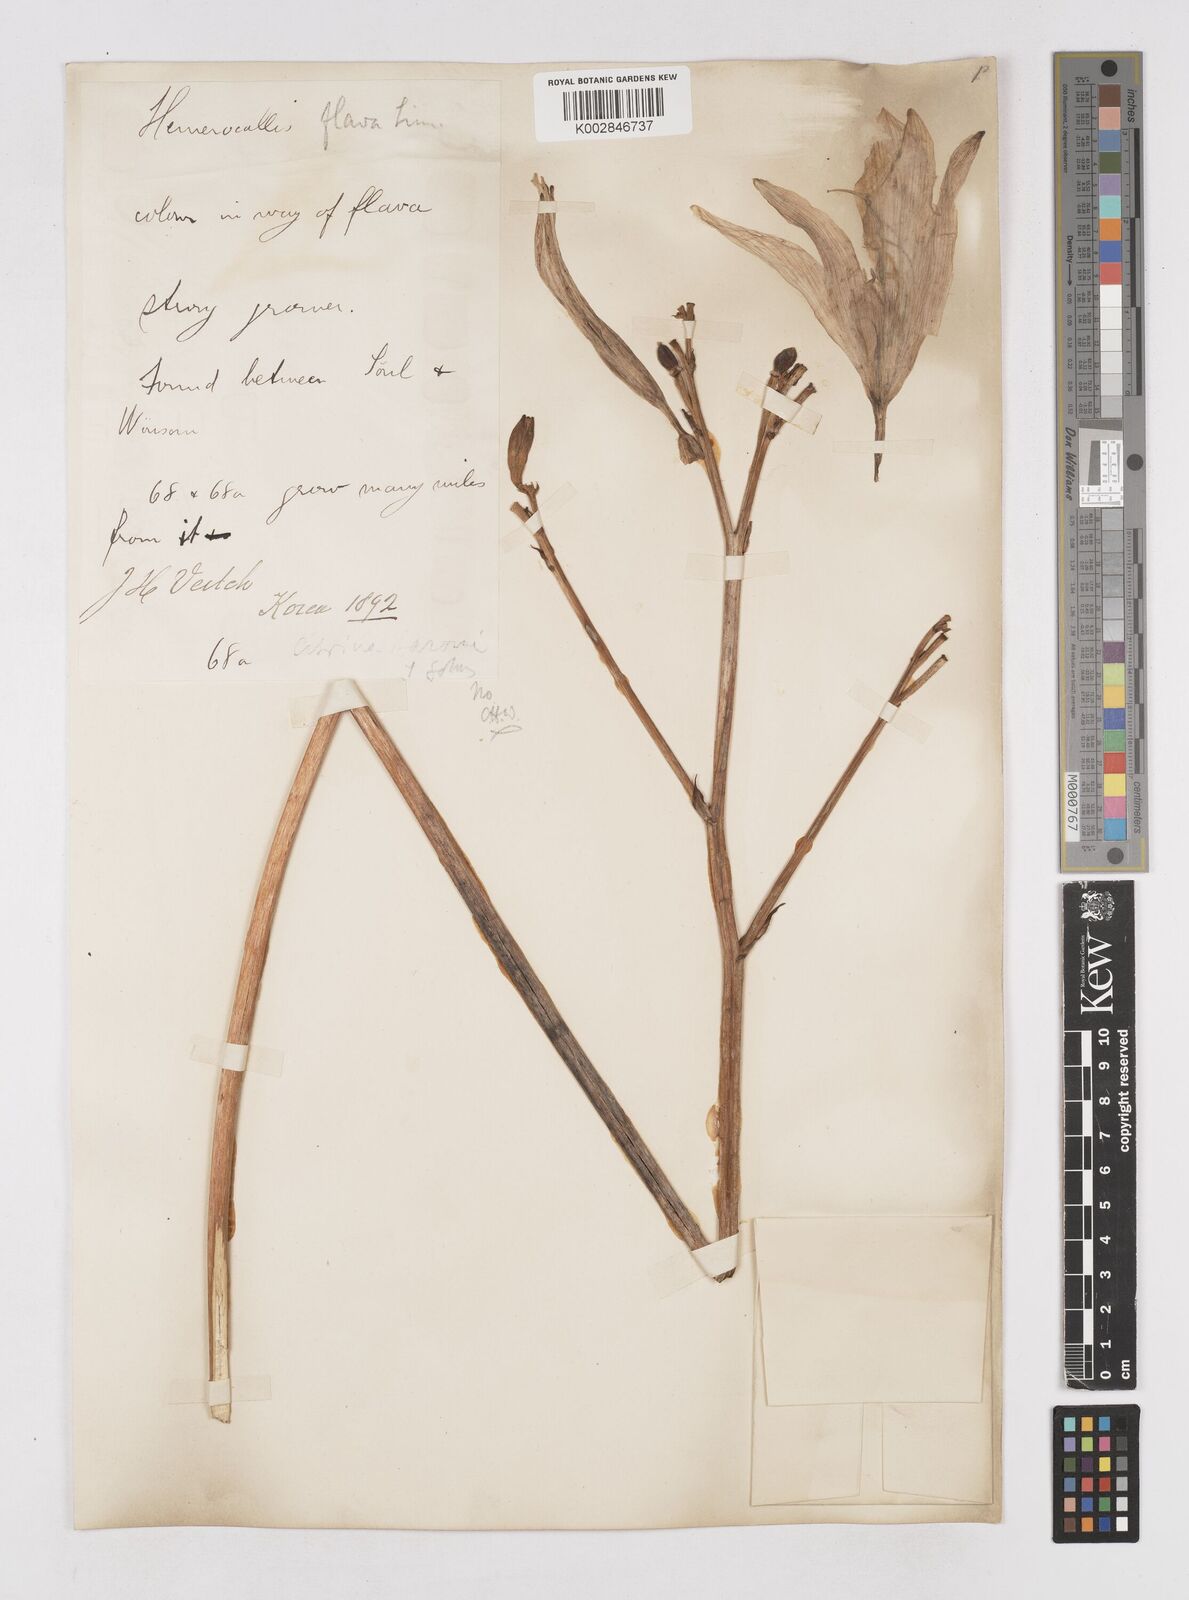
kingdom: Plantae
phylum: Tracheophyta
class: Liliopsida
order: Asparagales
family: Asphodelaceae
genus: Hemerocallis
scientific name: Hemerocallis
